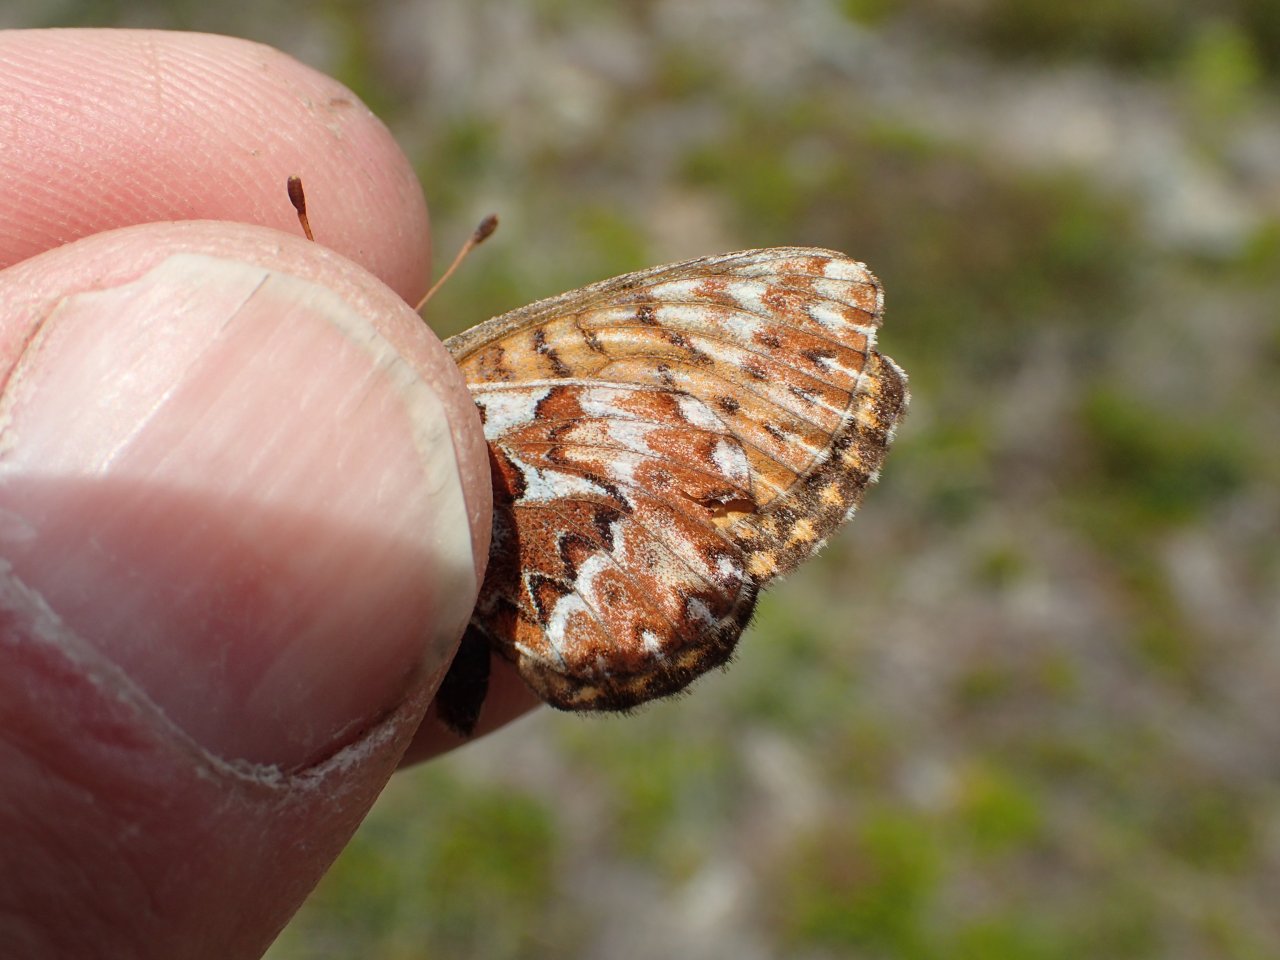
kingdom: Animalia
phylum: Arthropoda
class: Insecta
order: Lepidoptera
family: Nymphalidae
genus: Boloria
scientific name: Boloria freija
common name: Freija Fritillary
